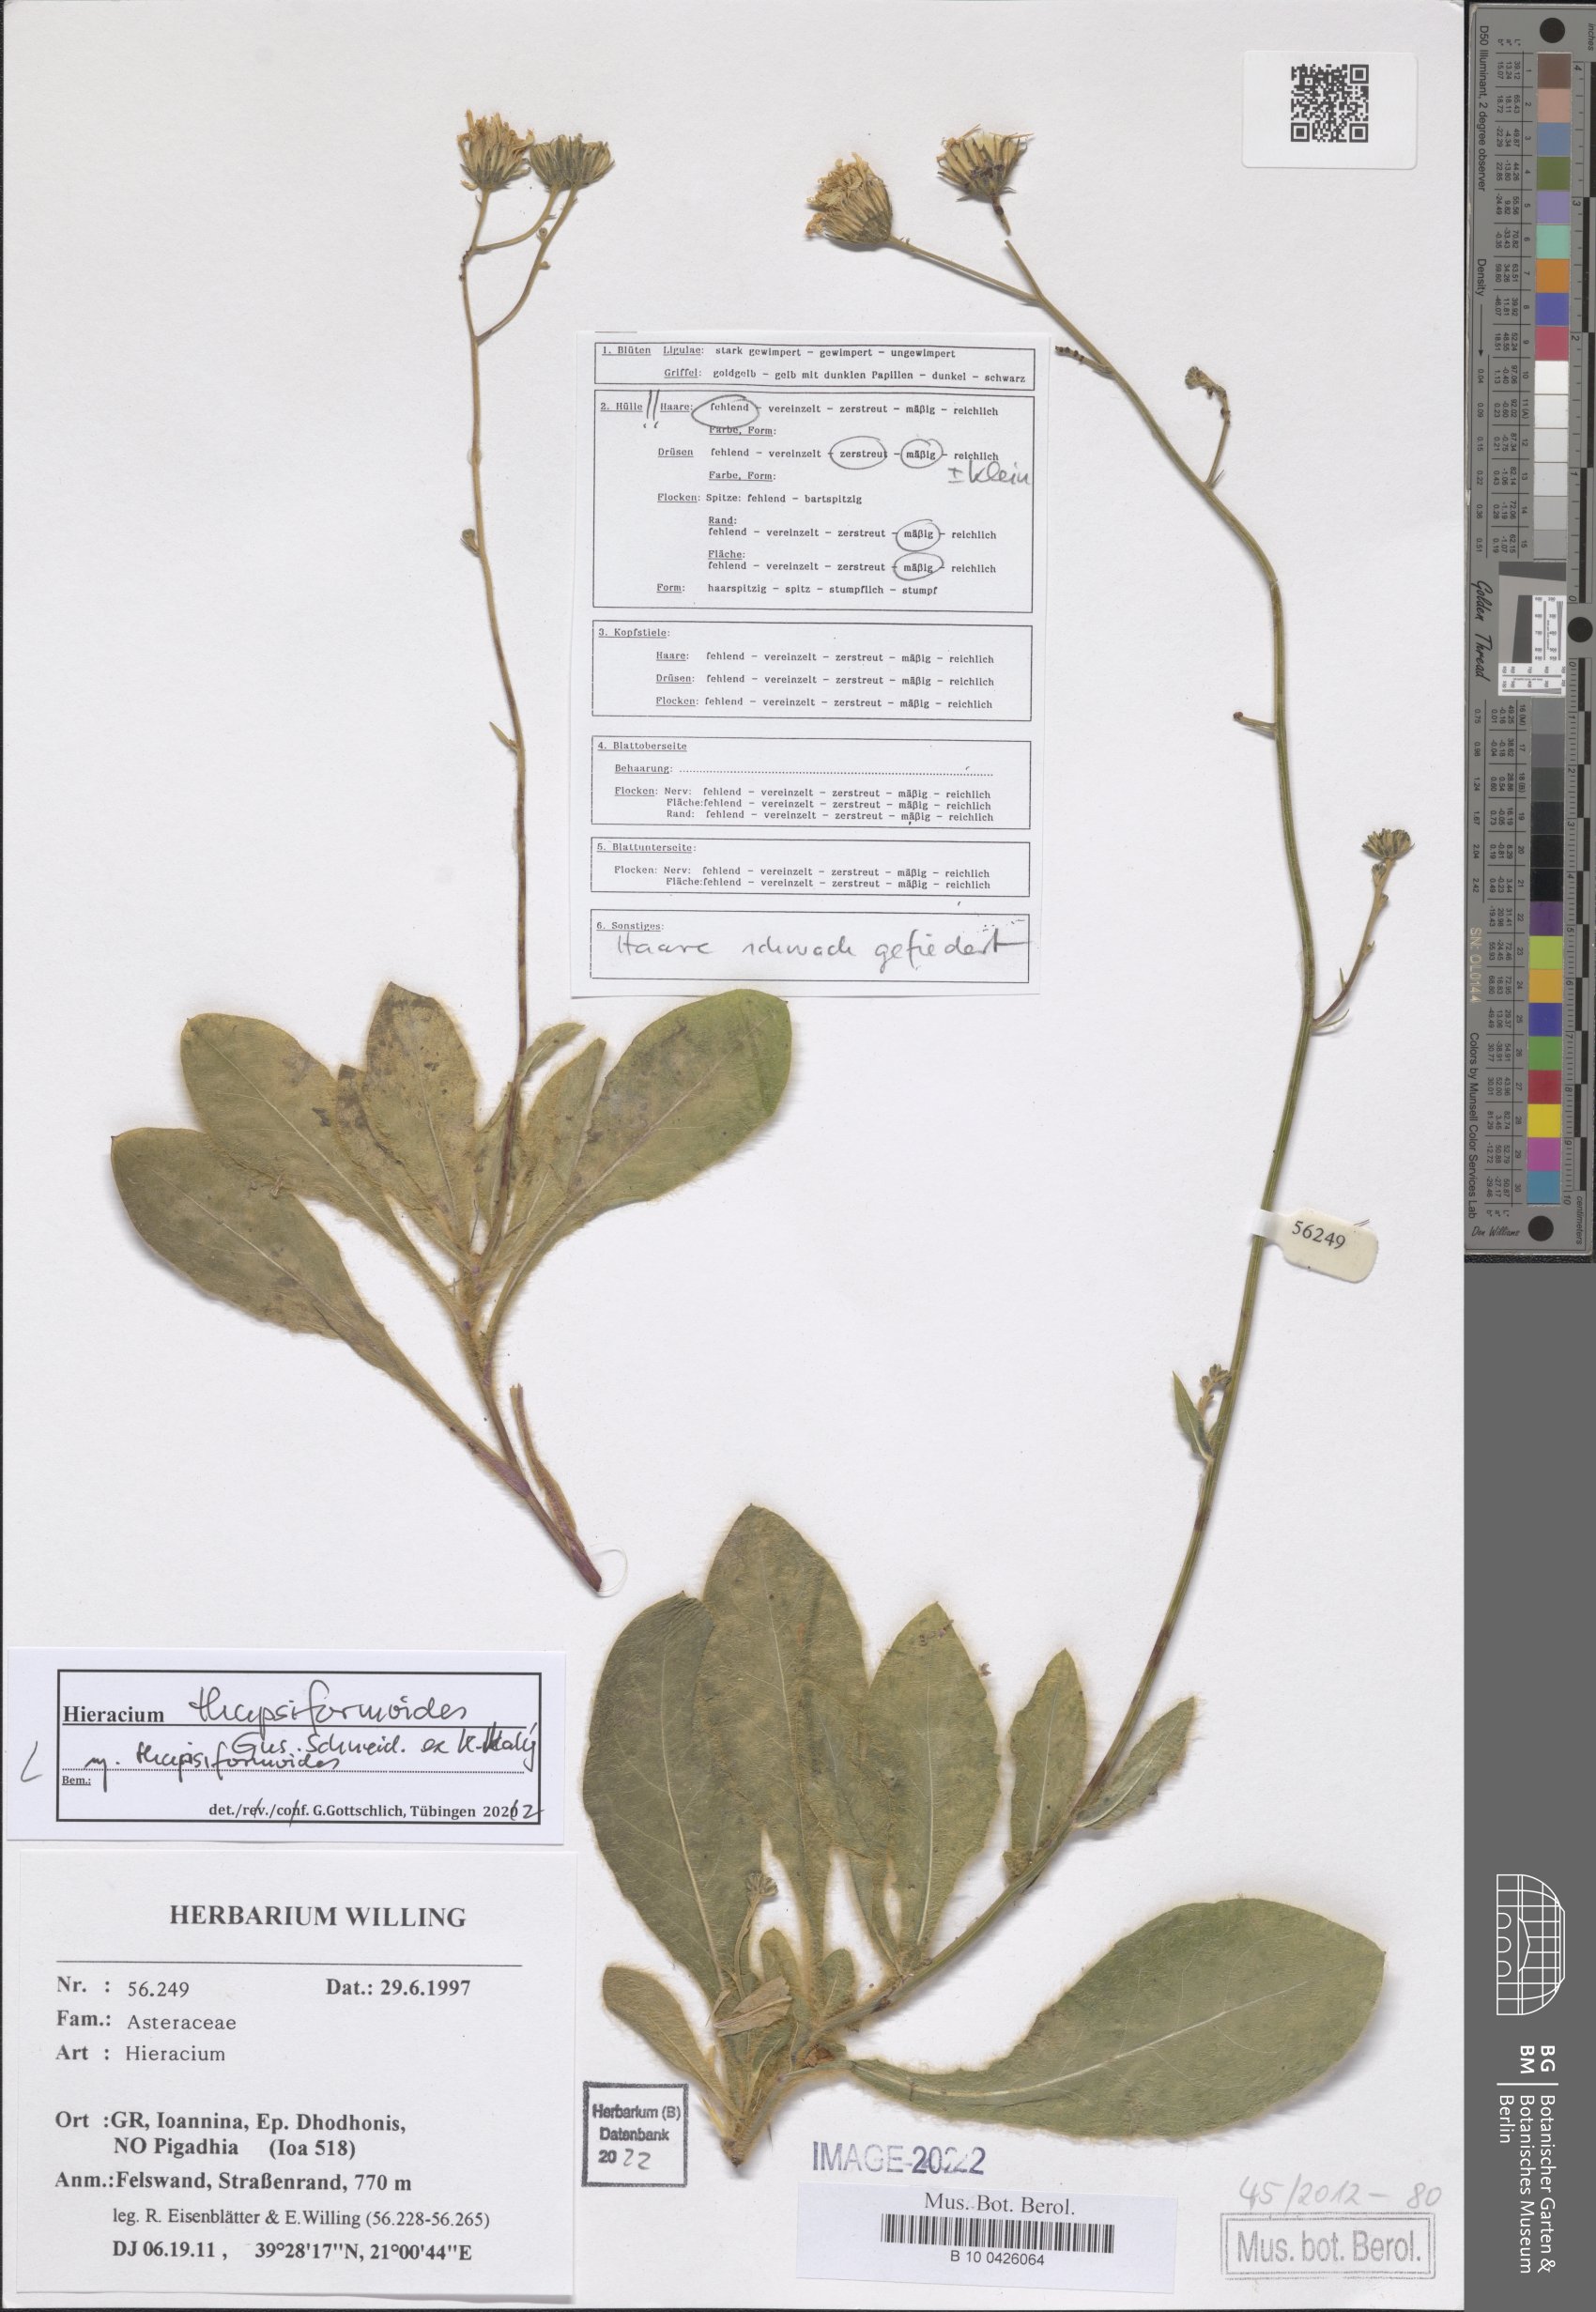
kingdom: Plantae
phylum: Tracheophyta
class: Magnoliopsida
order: Asterales
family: Asteraceae
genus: Hieracium
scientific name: Hieracium thapsiformoides
